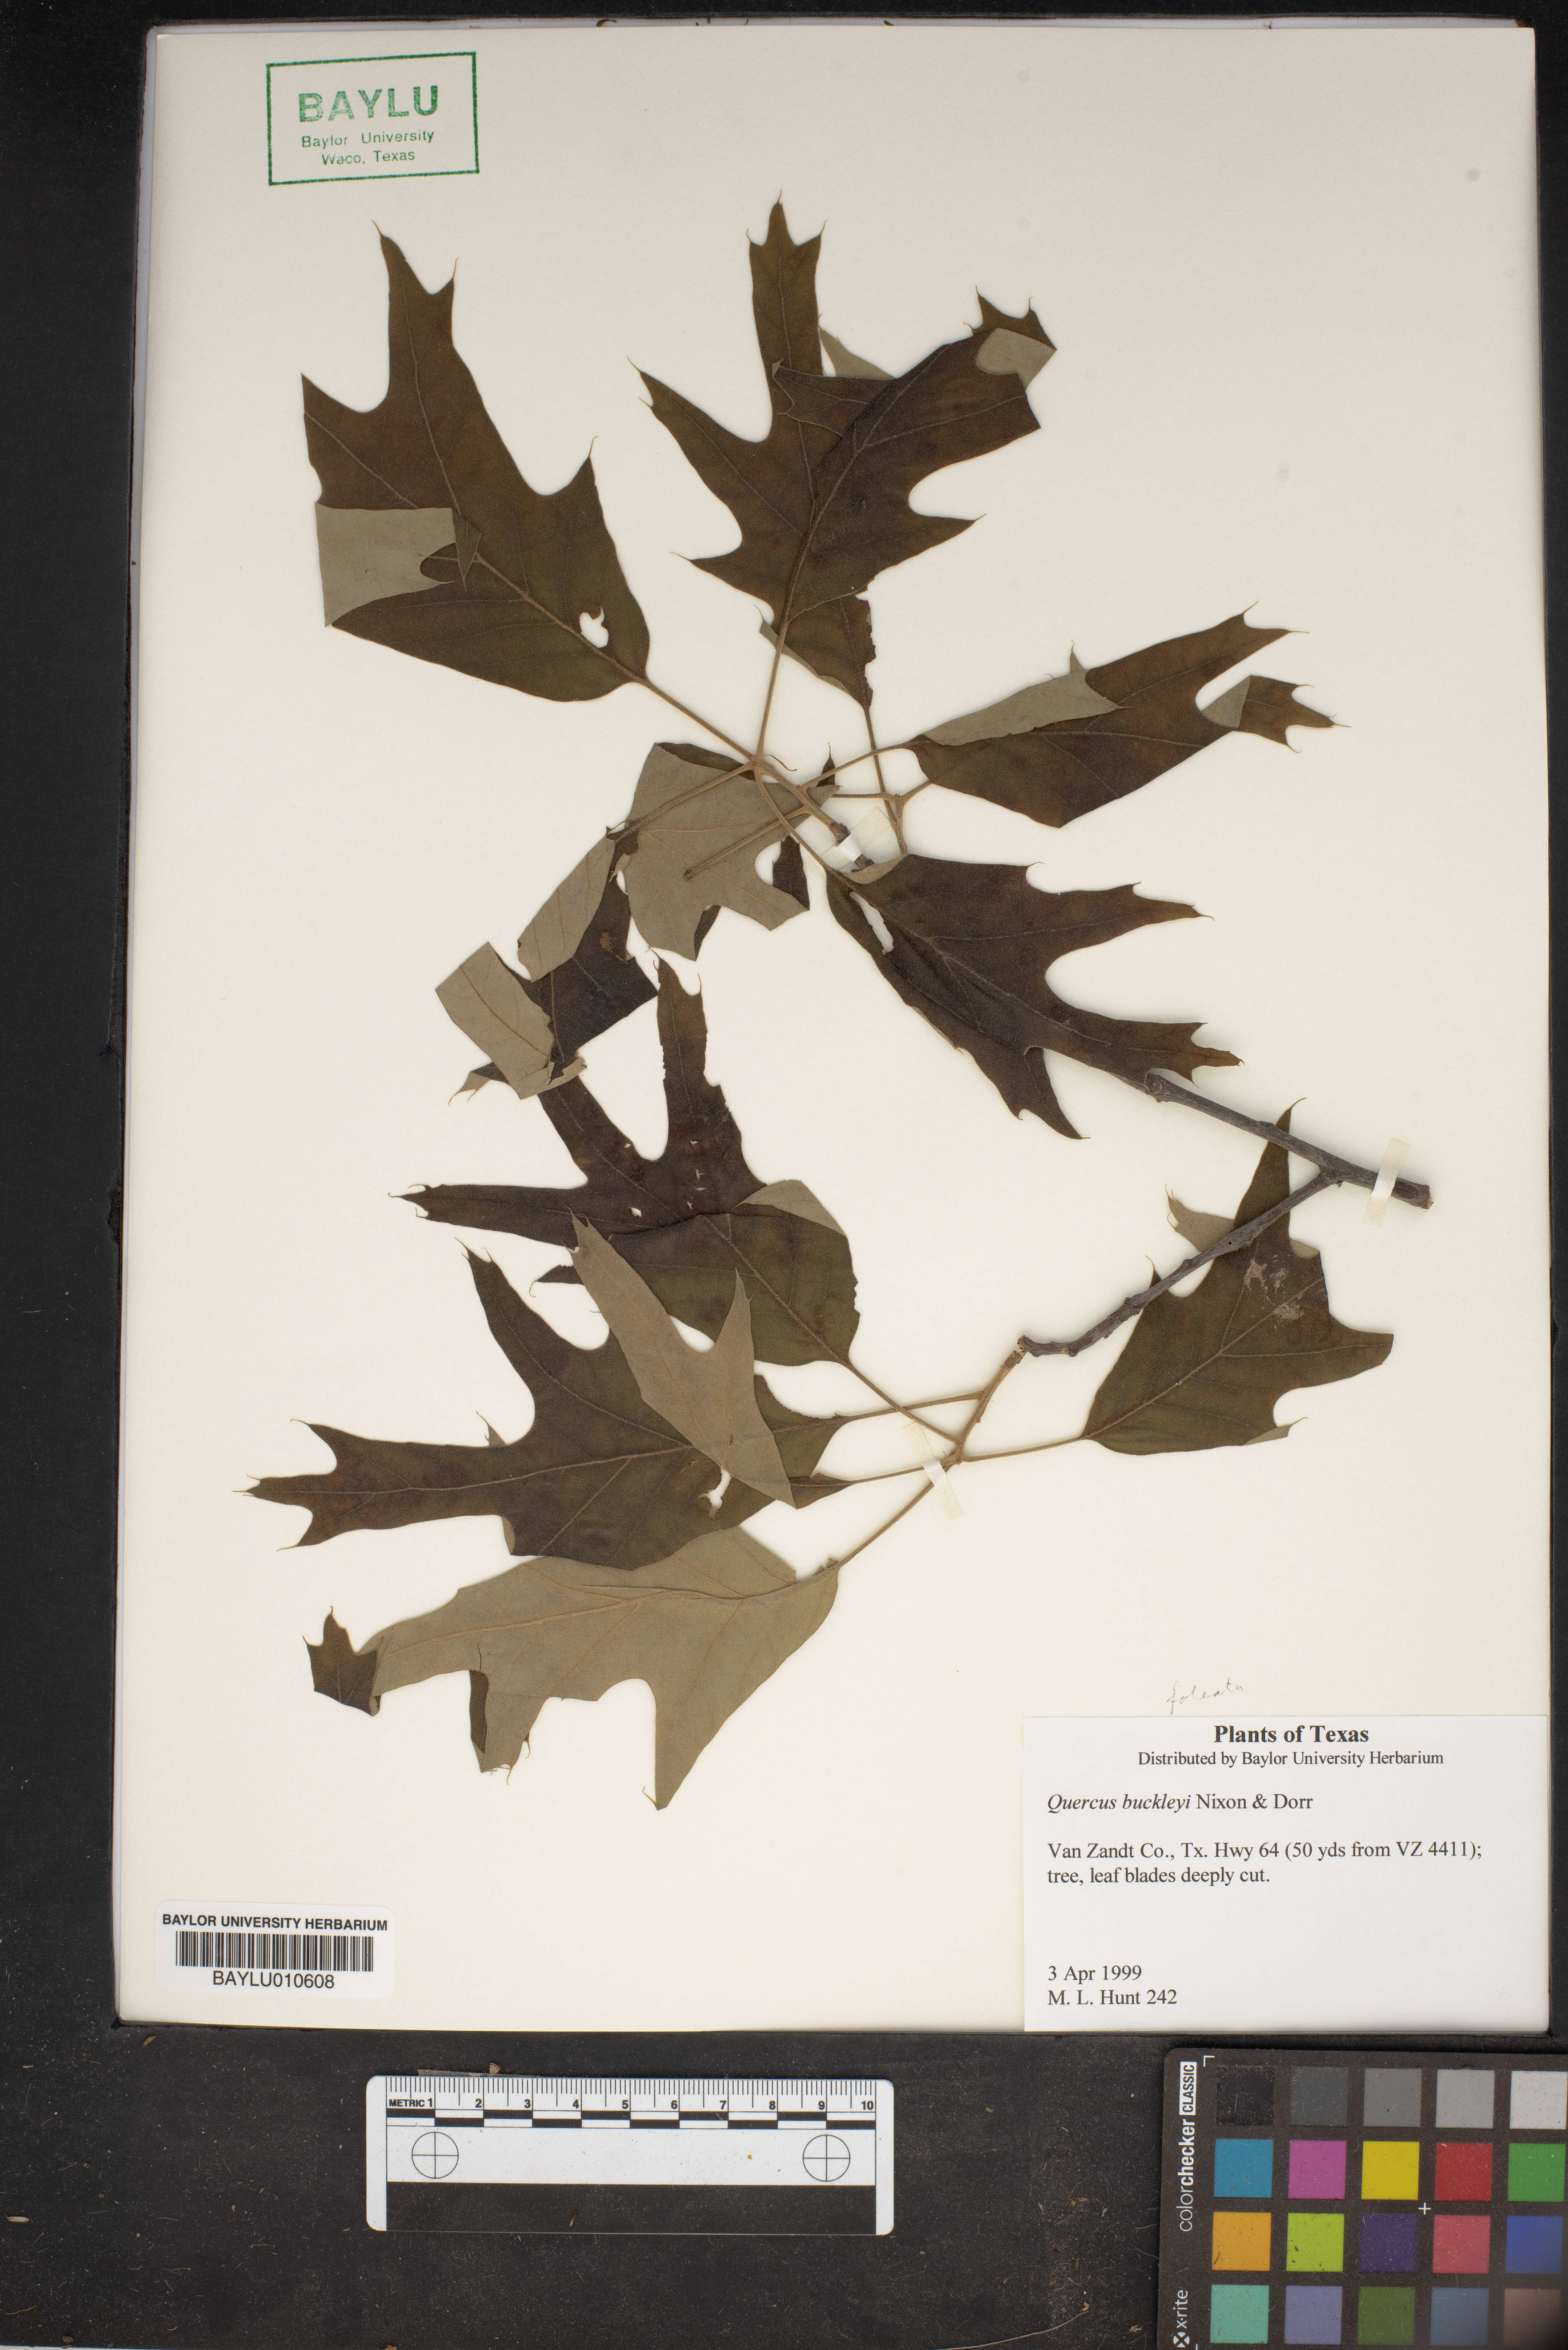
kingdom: Plantae
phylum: Tracheophyta
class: Magnoliopsida
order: Fagales
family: Fagaceae
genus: Quercus
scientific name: Quercus buckleyi
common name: Buckley oak
